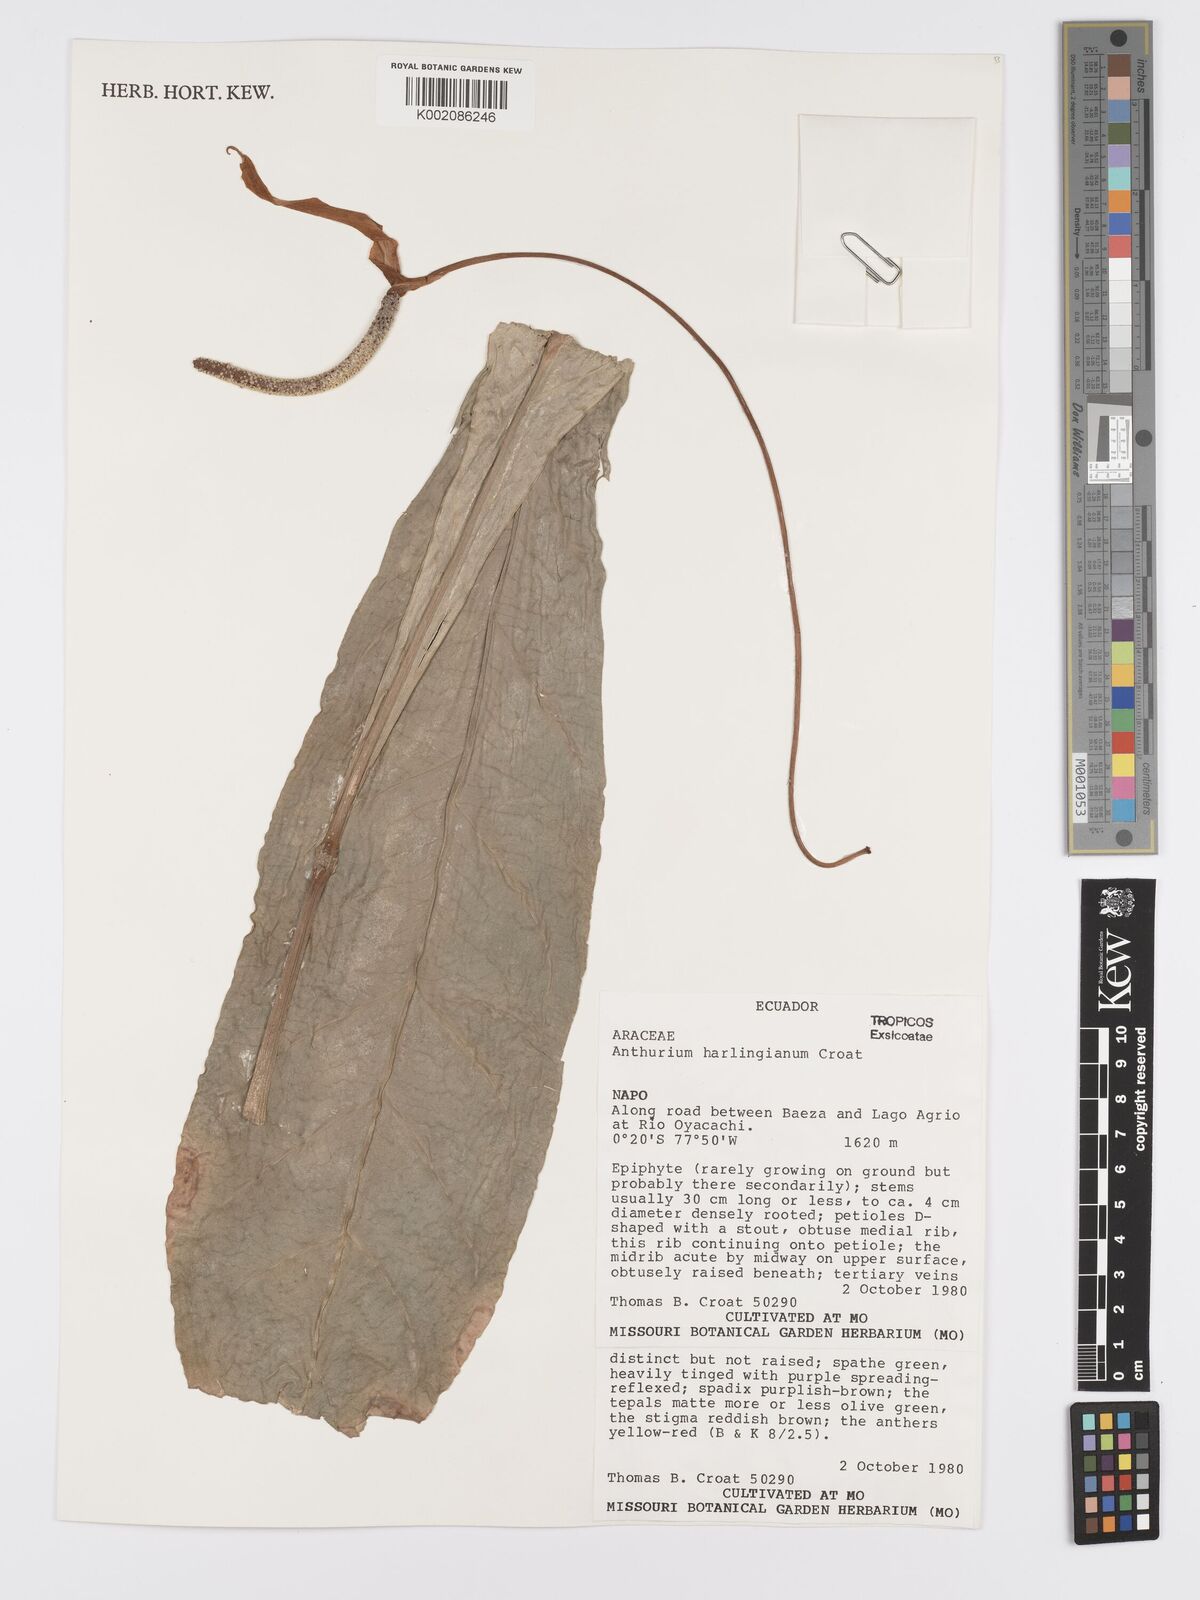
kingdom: Plantae
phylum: Tracheophyta
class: Liliopsida
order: Alismatales
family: Araceae
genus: Anthurium
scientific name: Anthurium harlingianum
